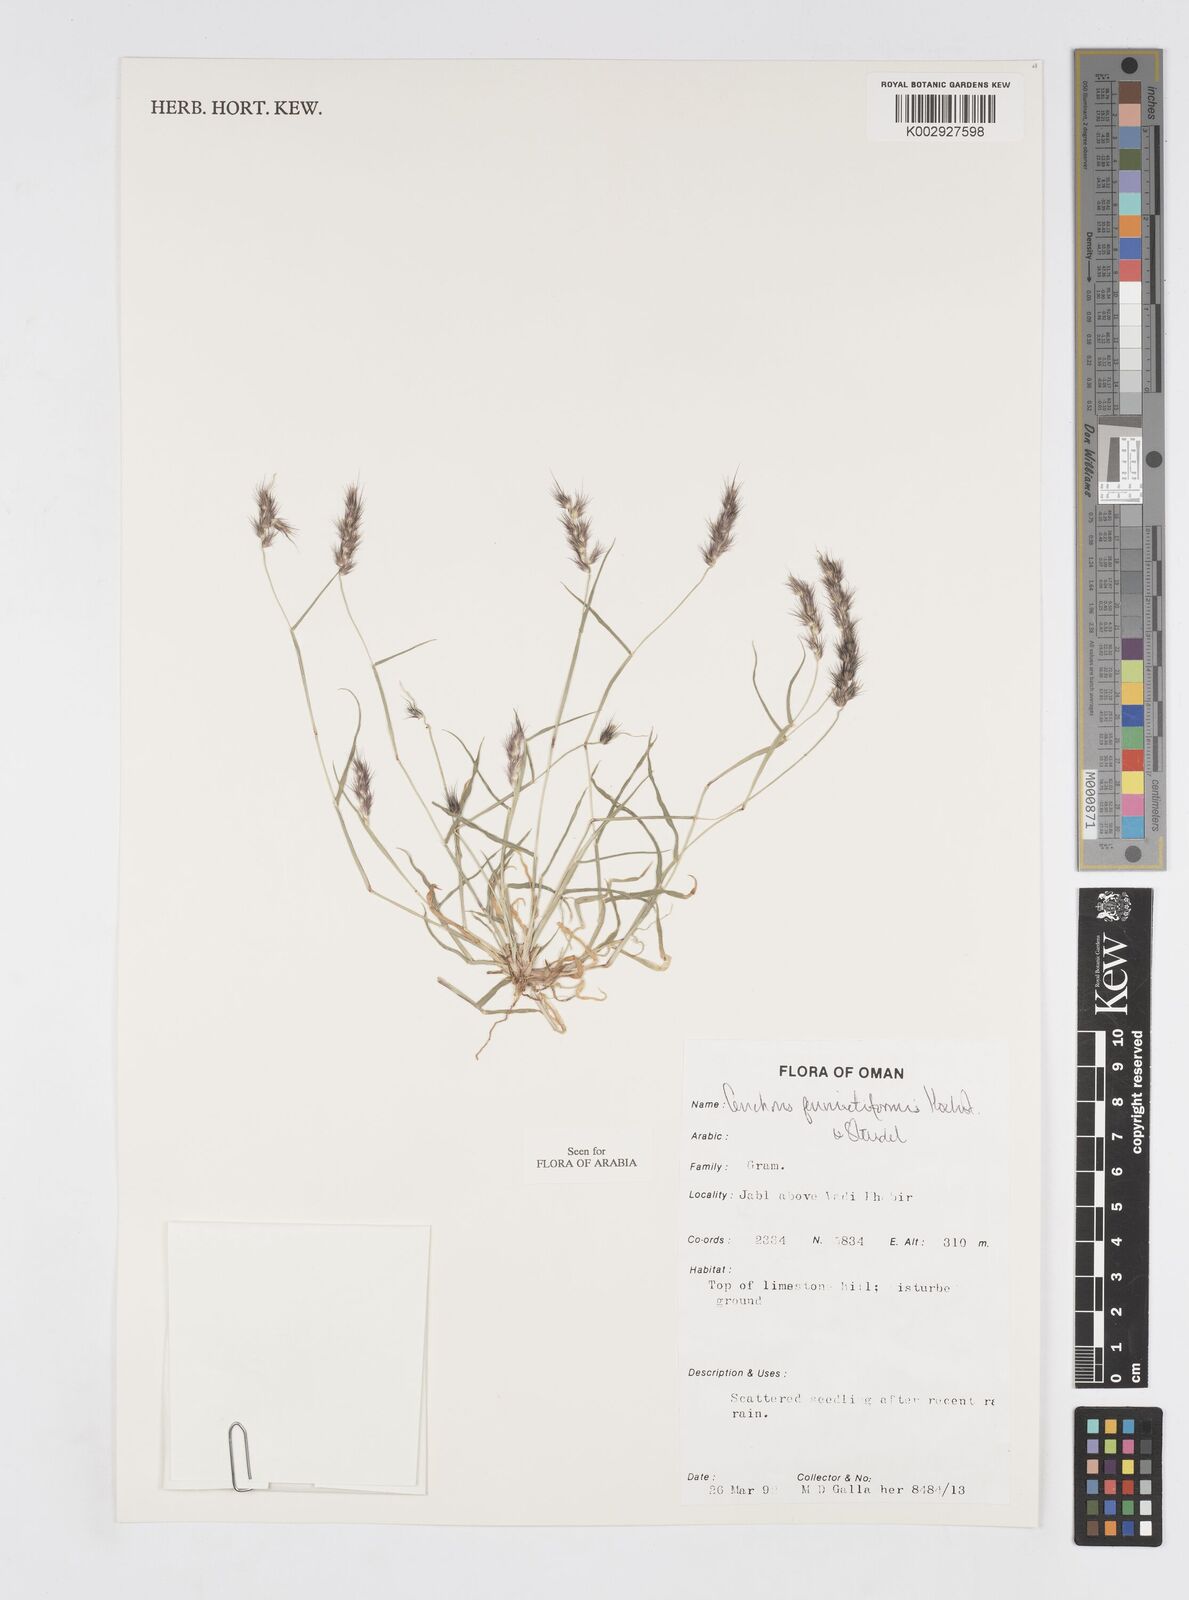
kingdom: Plantae
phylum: Tracheophyta
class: Liliopsida
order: Poales
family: Poaceae
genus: Cenchrus
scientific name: Cenchrus pennisetiformis
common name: Cloncurry
